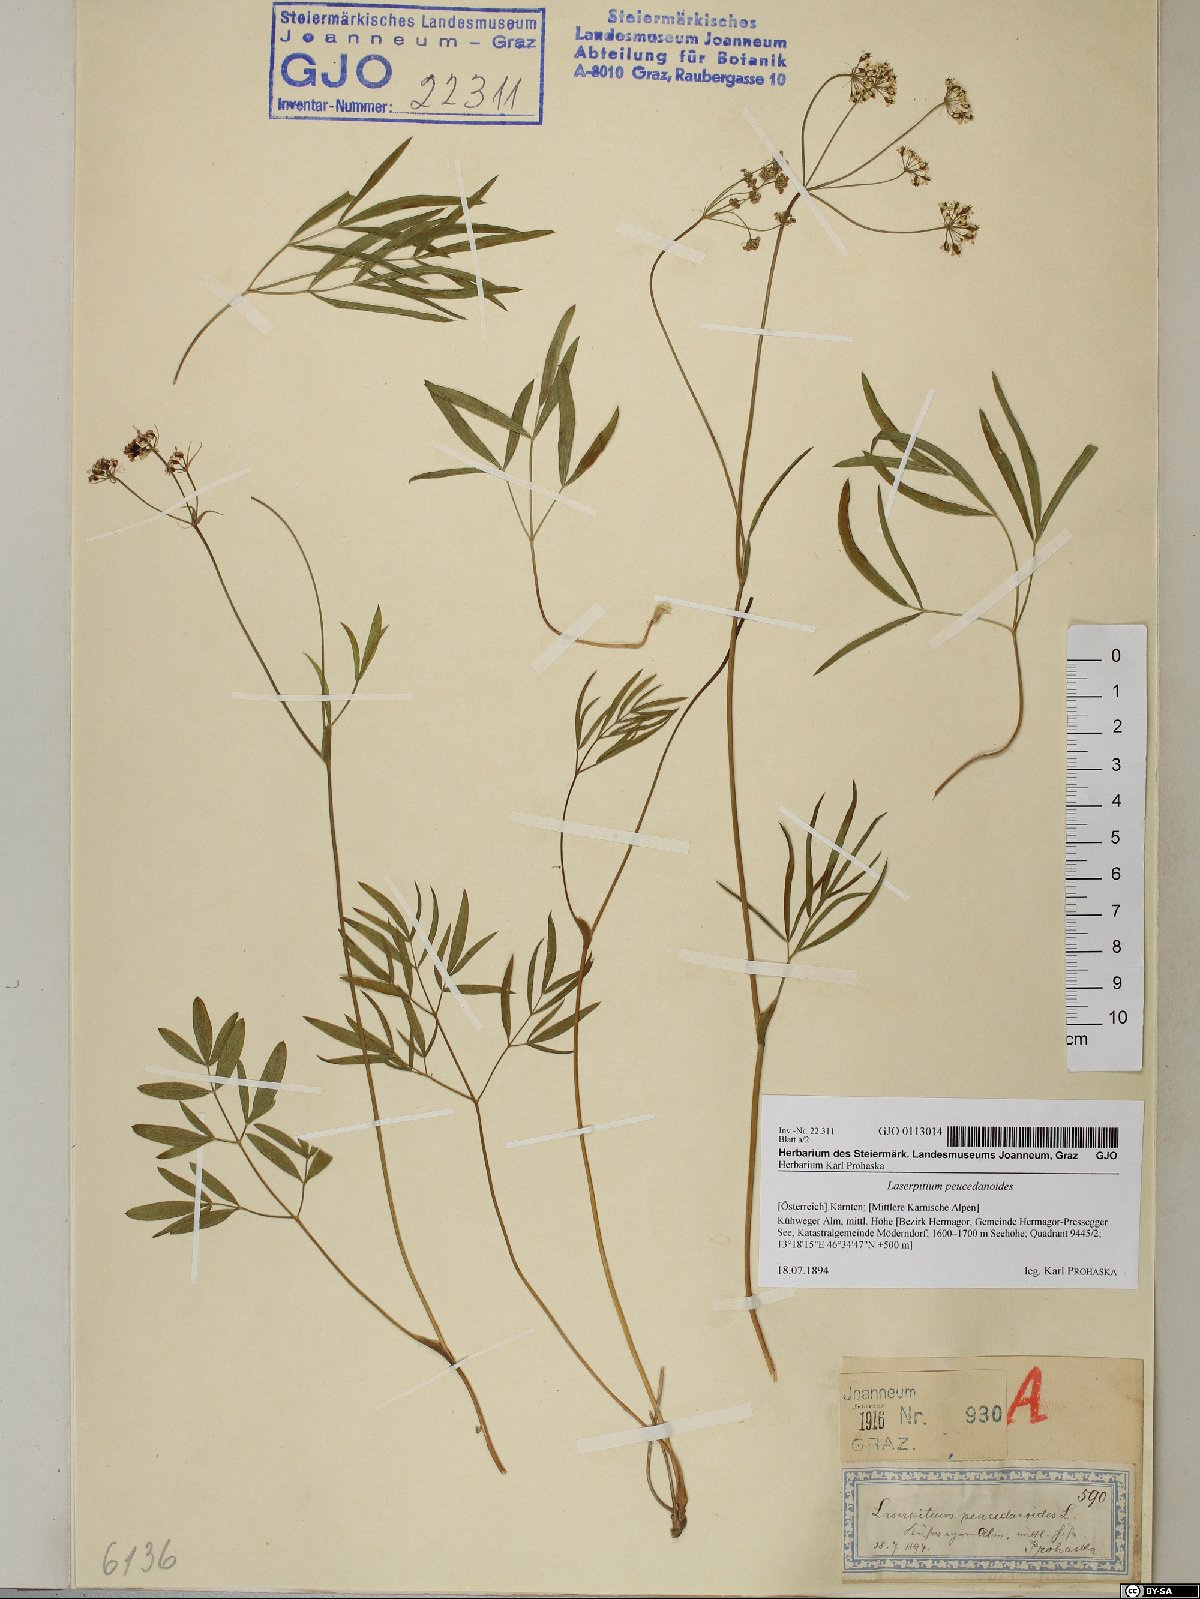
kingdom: Plantae
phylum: Tracheophyta
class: Magnoliopsida
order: Apiales
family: Apiaceae
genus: Laserpitium
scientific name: Laserpitium peucedanoides
